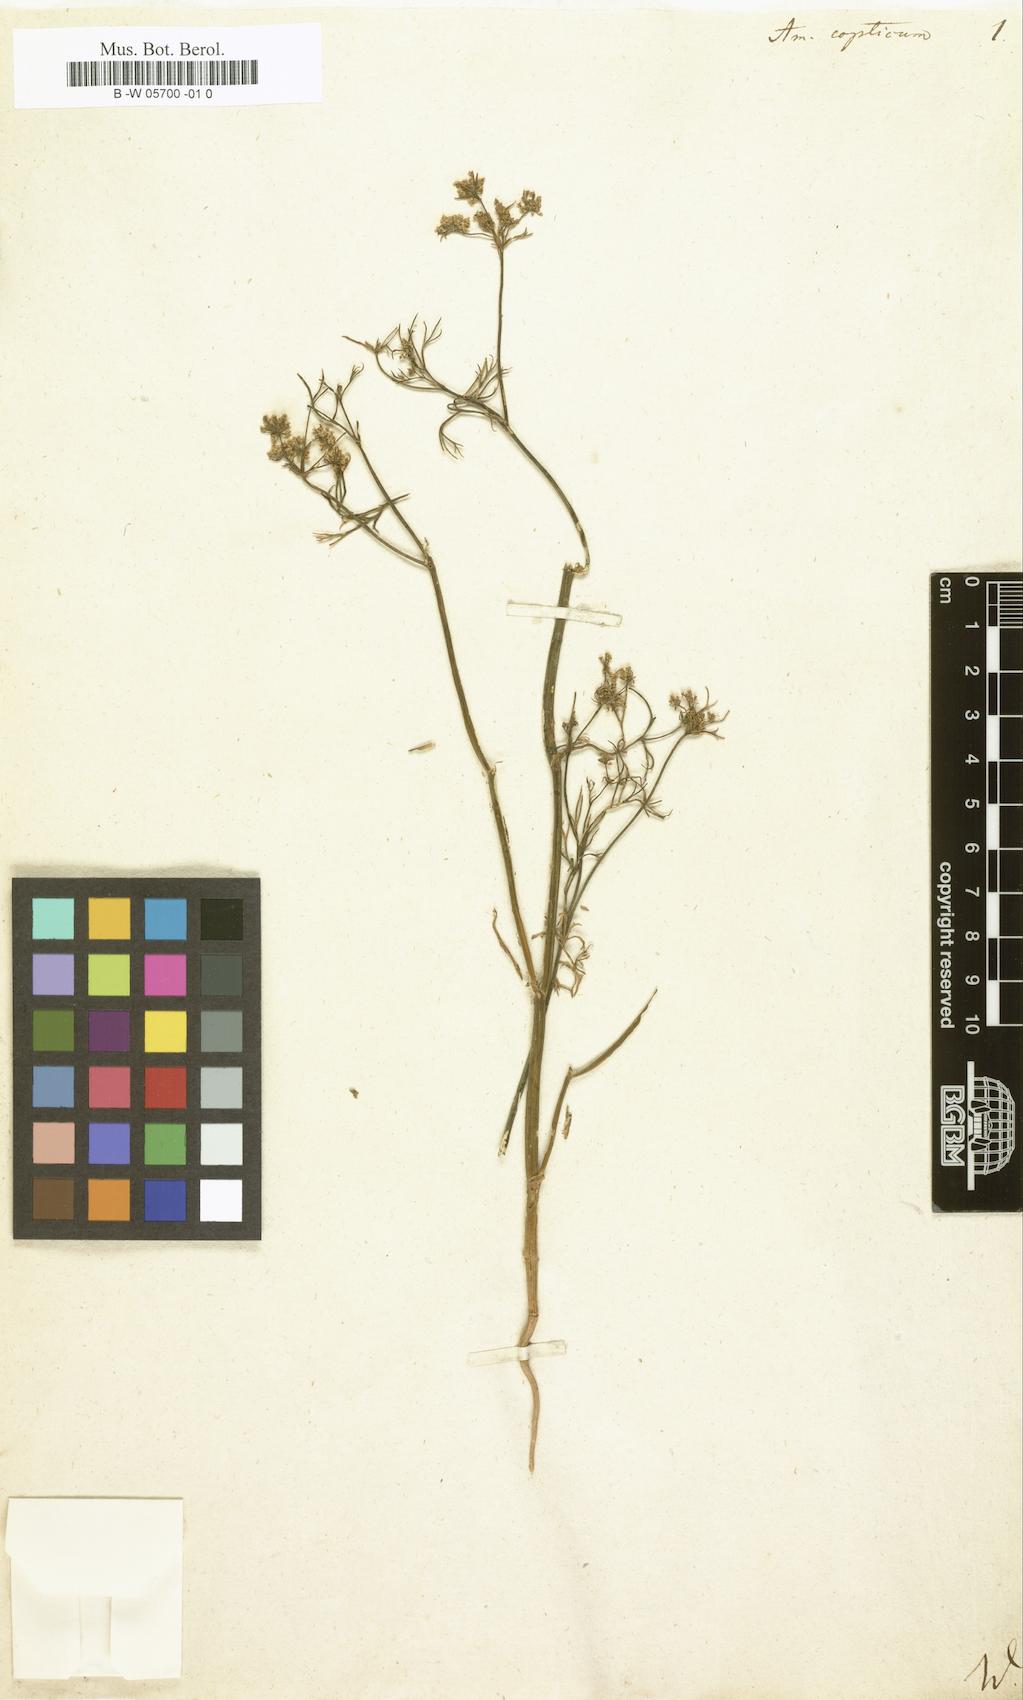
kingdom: Plantae
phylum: Tracheophyta
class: Magnoliopsida
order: Apiales
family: Apiaceae
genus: Trachyspermum
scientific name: Trachyspermum ammi
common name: Ajowan
